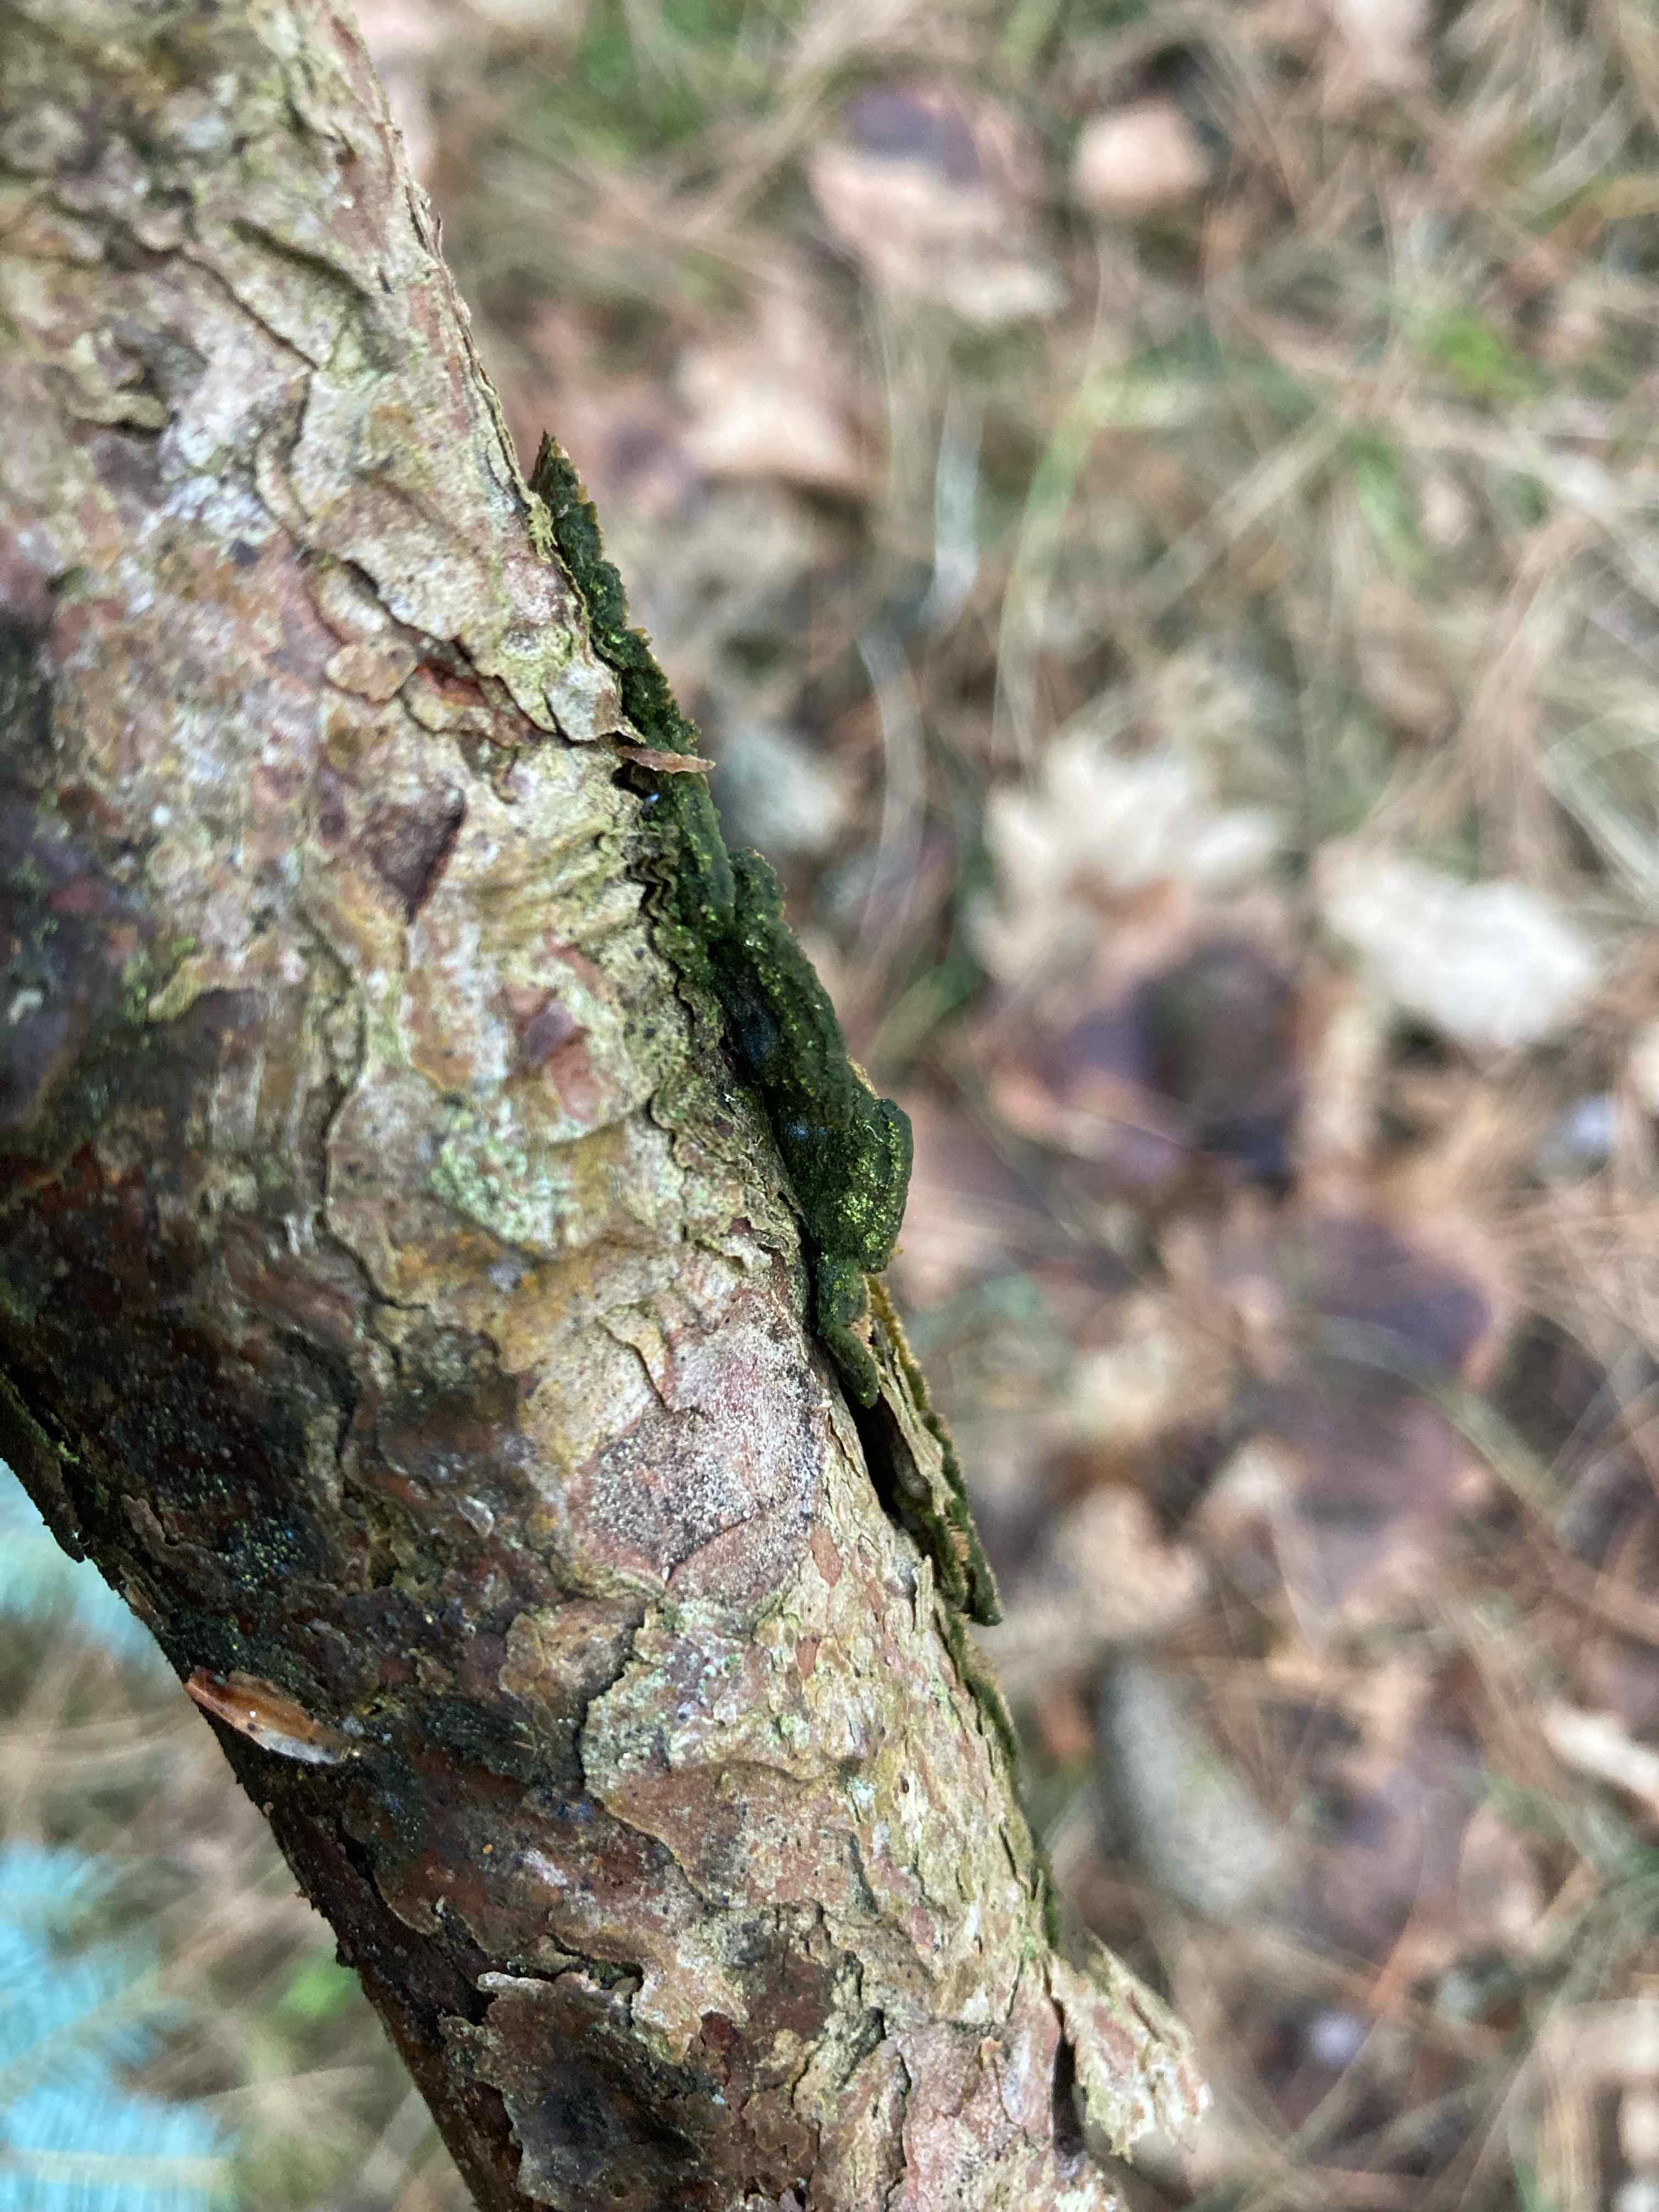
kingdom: Fungi
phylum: Basidiomycota
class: Agaricomycetes
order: Polyporales
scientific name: Polyporales
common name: poresvampordenen
